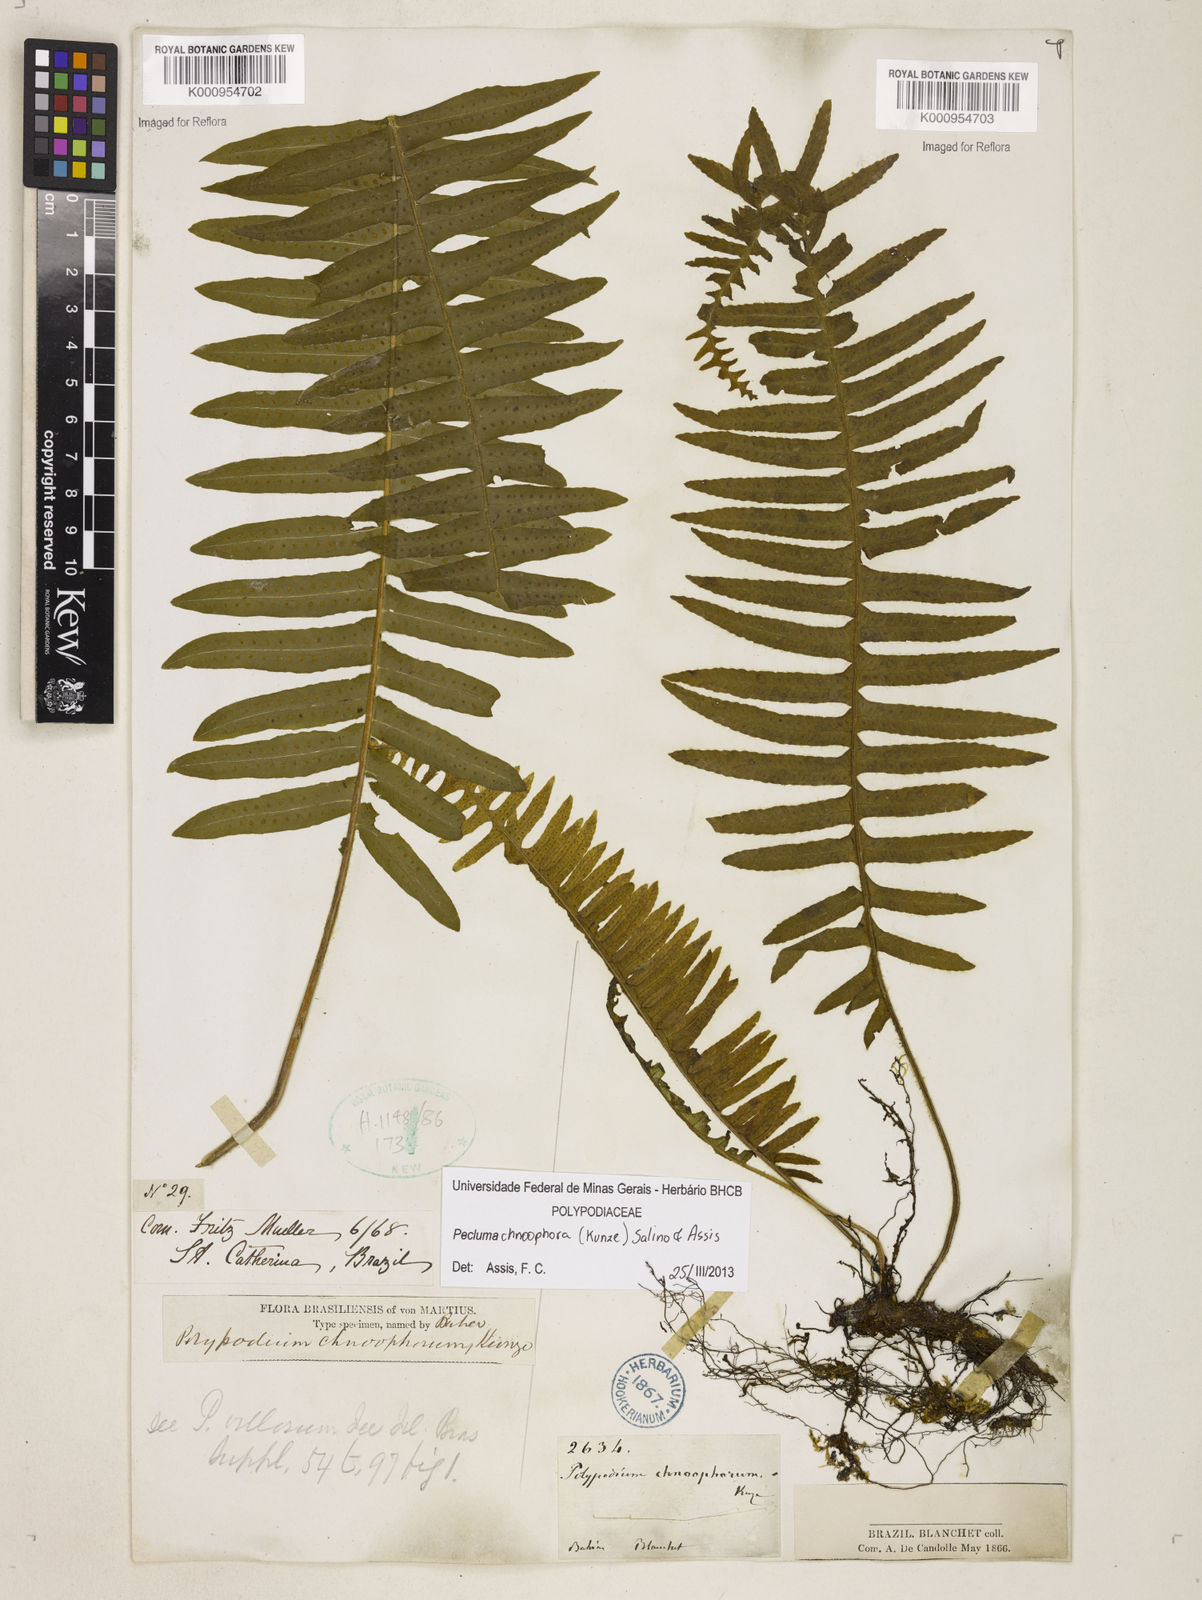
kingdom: Plantae
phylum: Tracheophyta
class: Polypodiopsida
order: Polypodiales
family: Polypodiaceae
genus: Pecluma
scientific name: Pecluma chnoophora
